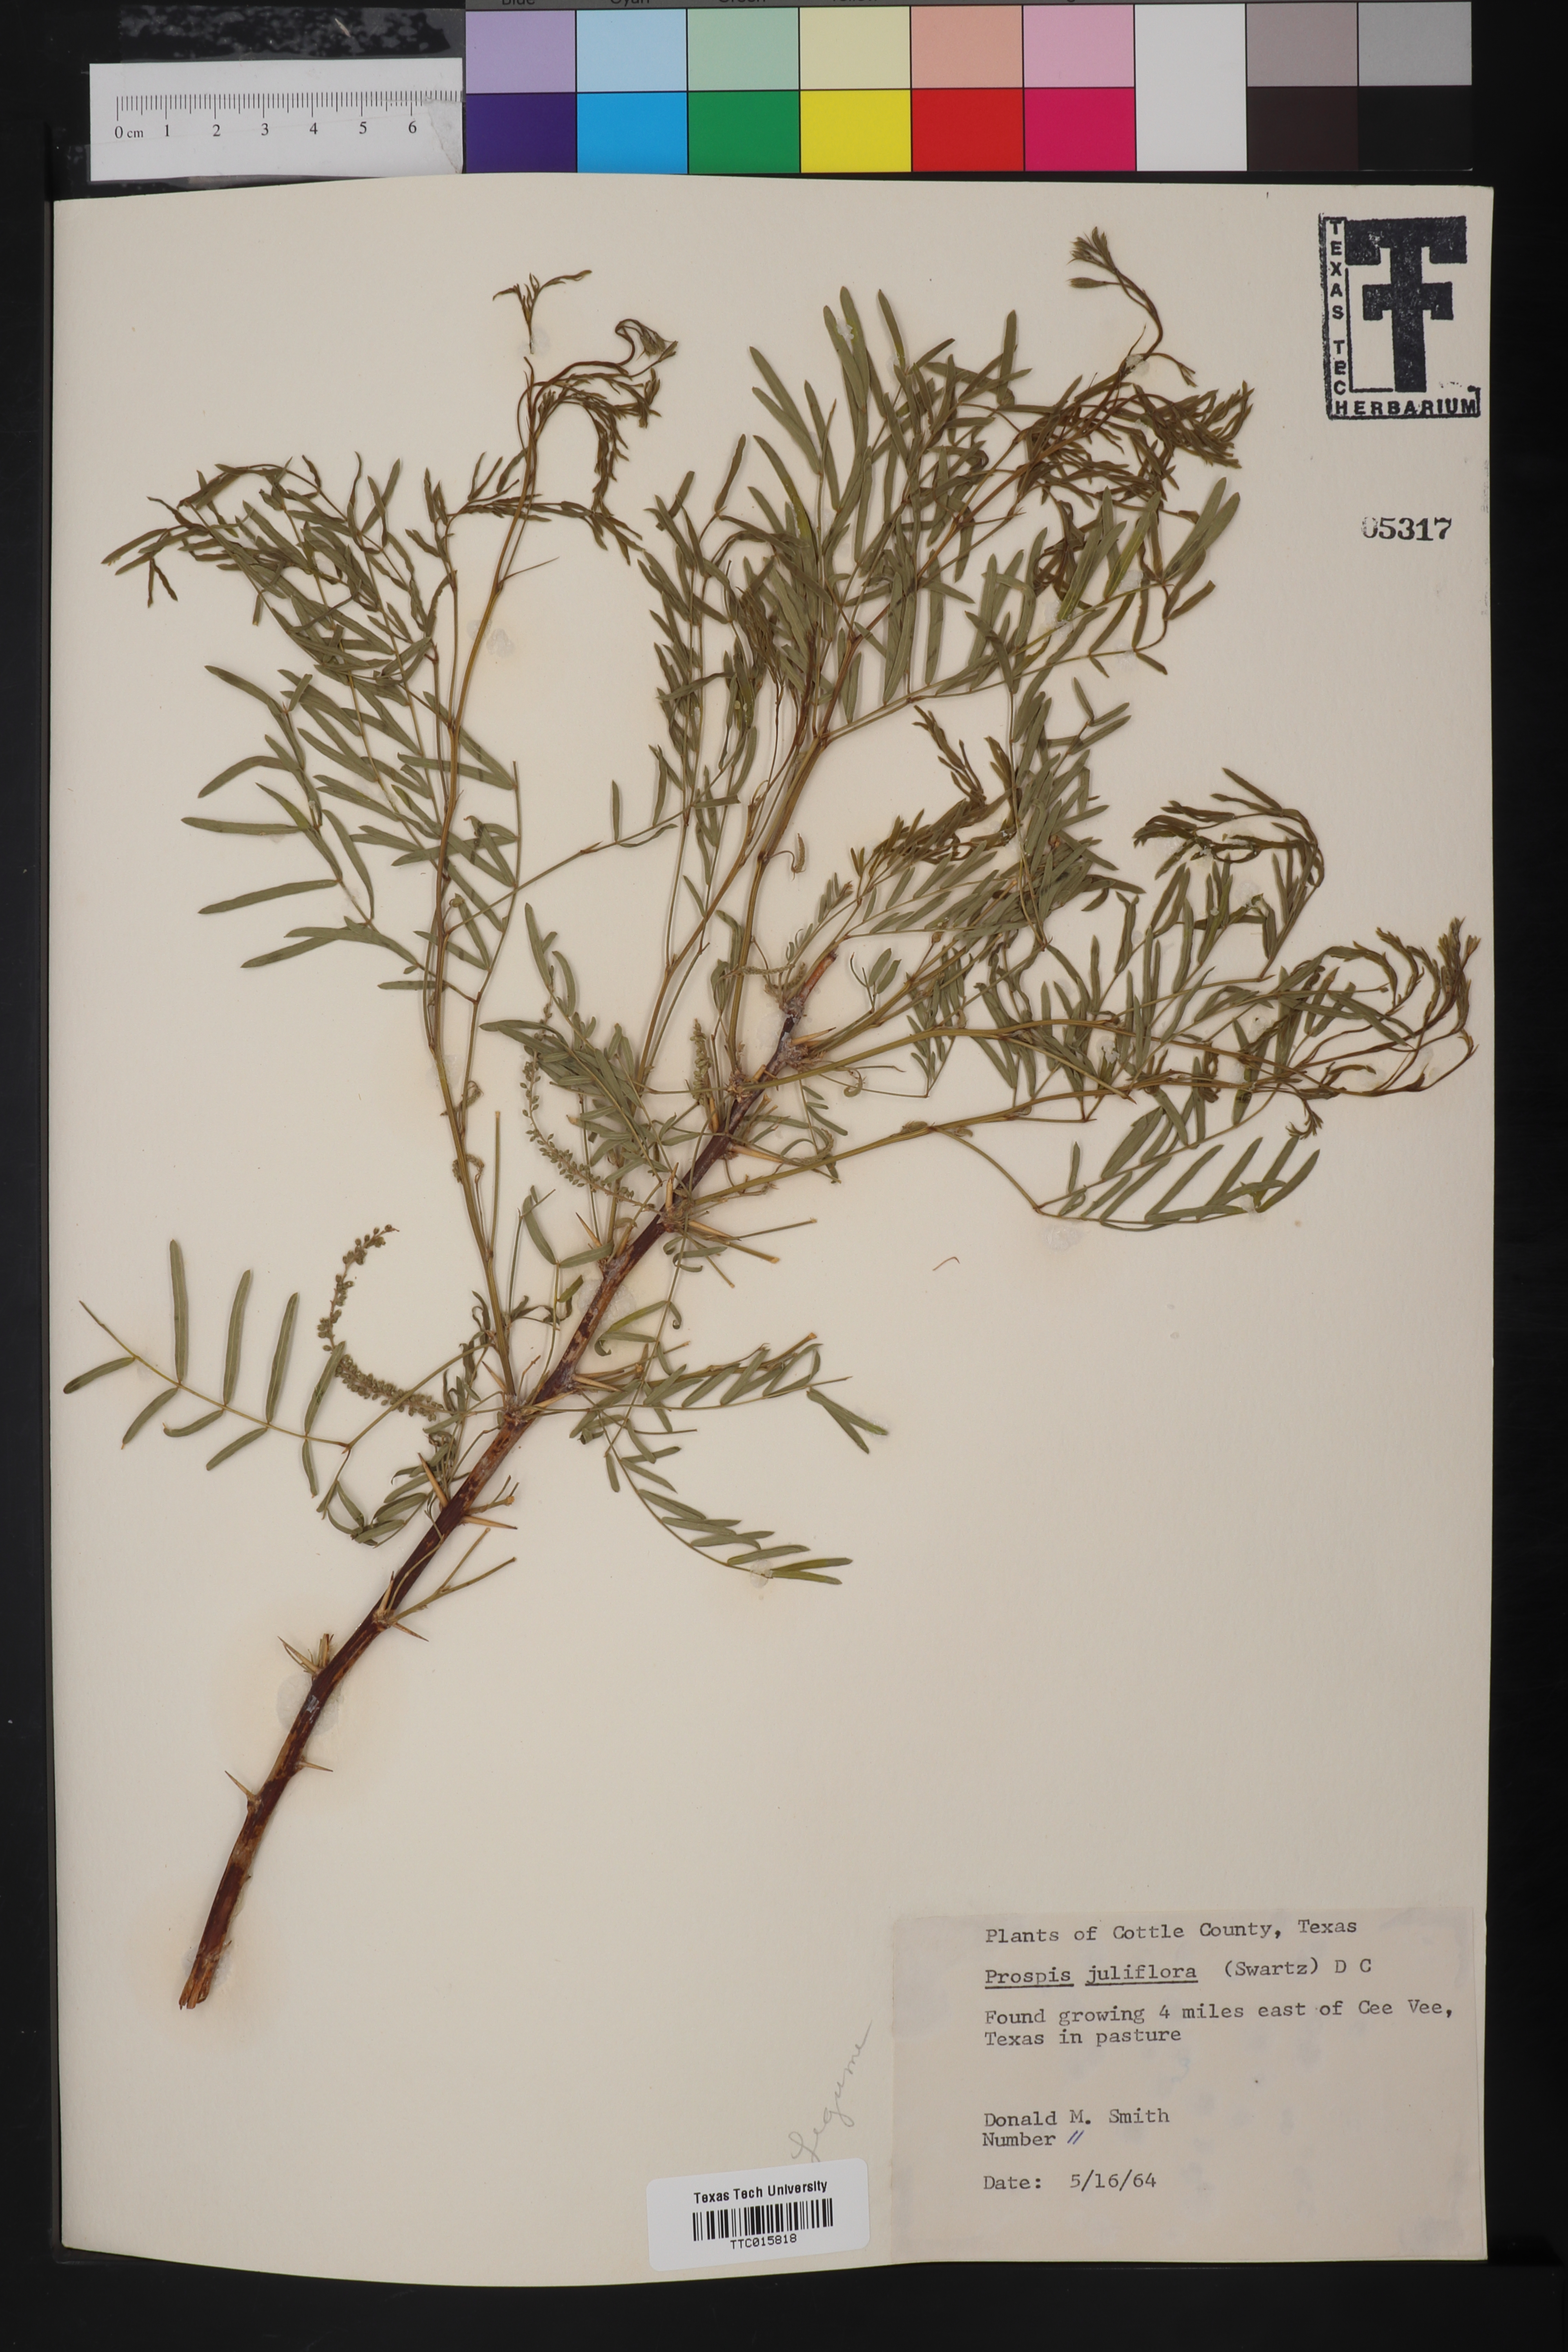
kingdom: Plantae
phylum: Tracheophyta
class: Magnoliopsida
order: Fabales
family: Fabaceae
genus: Prosopis
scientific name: Prosopis juliflora
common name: Mesquite
